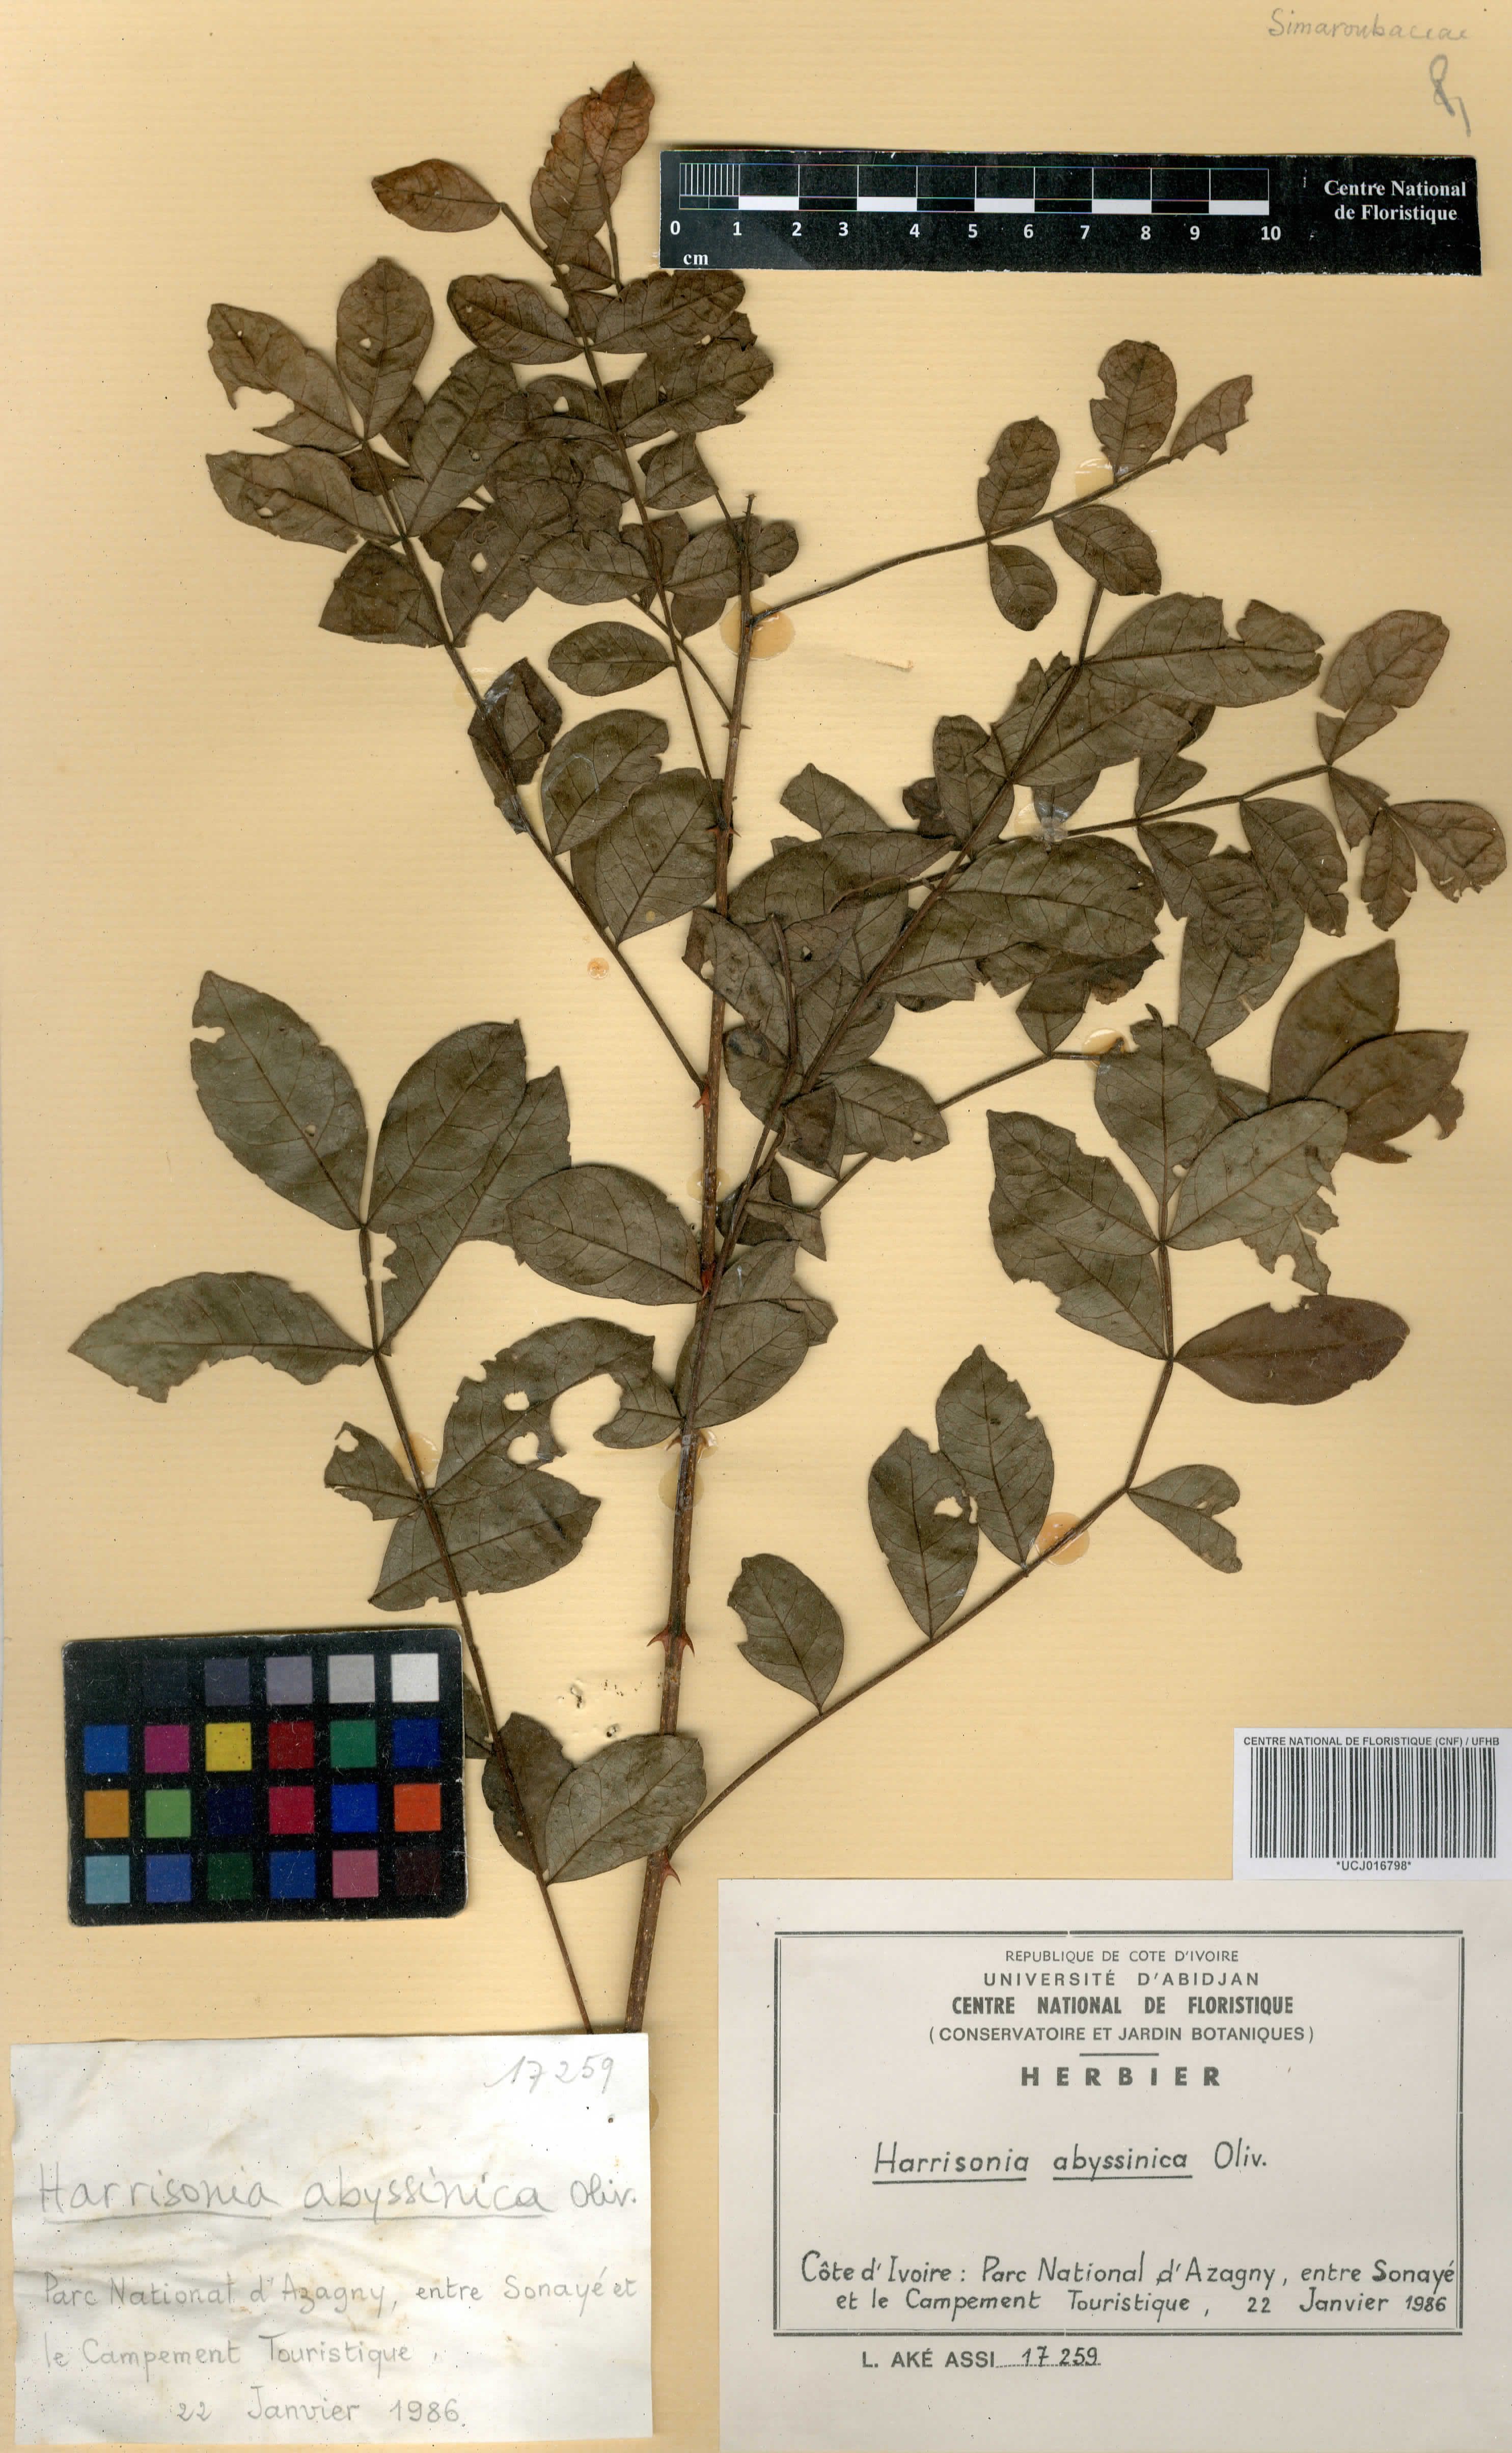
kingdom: Plantae
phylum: Tracheophyta
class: Magnoliopsida
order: Sapindales
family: Rutaceae
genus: Harrisonia
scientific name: Harrisonia abyssinica
